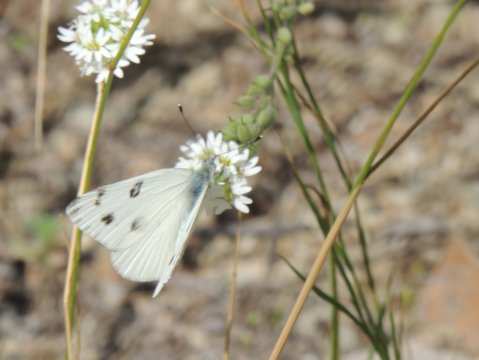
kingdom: Animalia
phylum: Arthropoda
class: Insecta
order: Lepidoptera
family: Pieridae
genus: Pontia
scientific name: Pontia beckerii
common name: Becker's White
